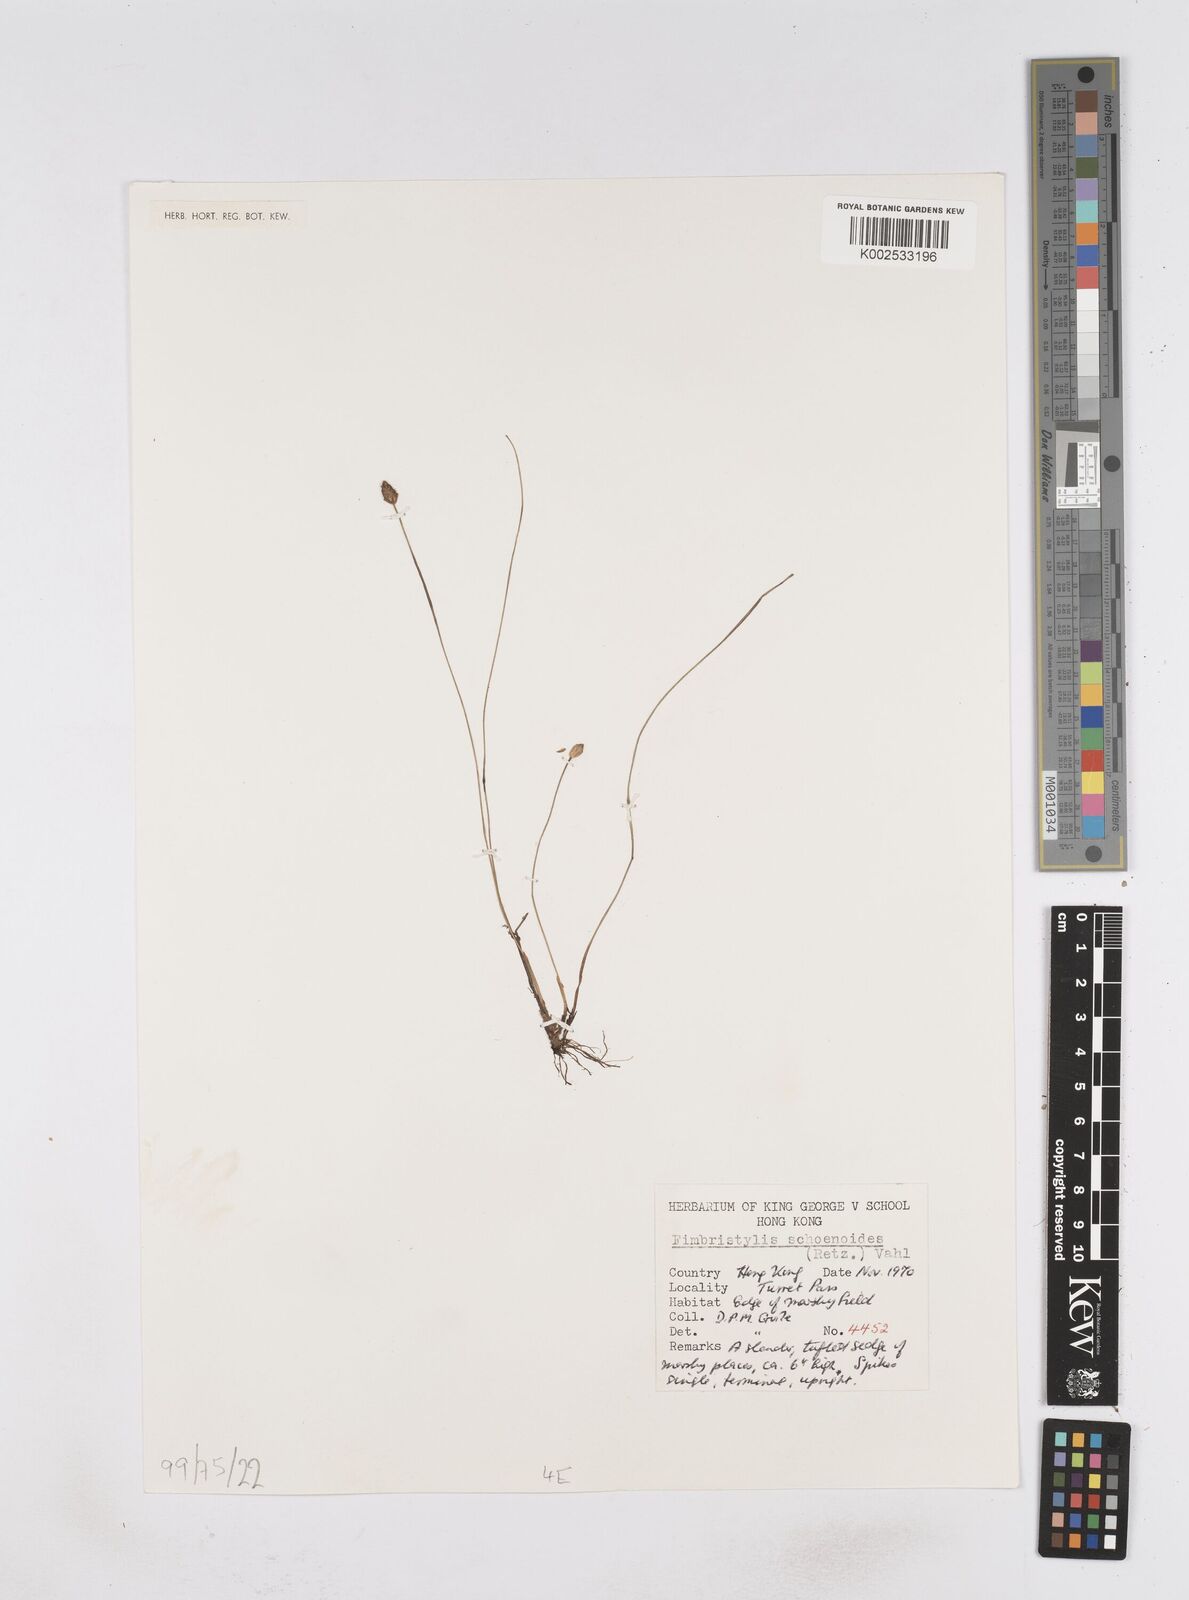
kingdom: Plantae
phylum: Tracheophyta
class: Liliopsida
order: Poales
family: Cyperaceae
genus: Fimbristylis
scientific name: Fimbristylis schoenoides
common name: Ditch fimbry
